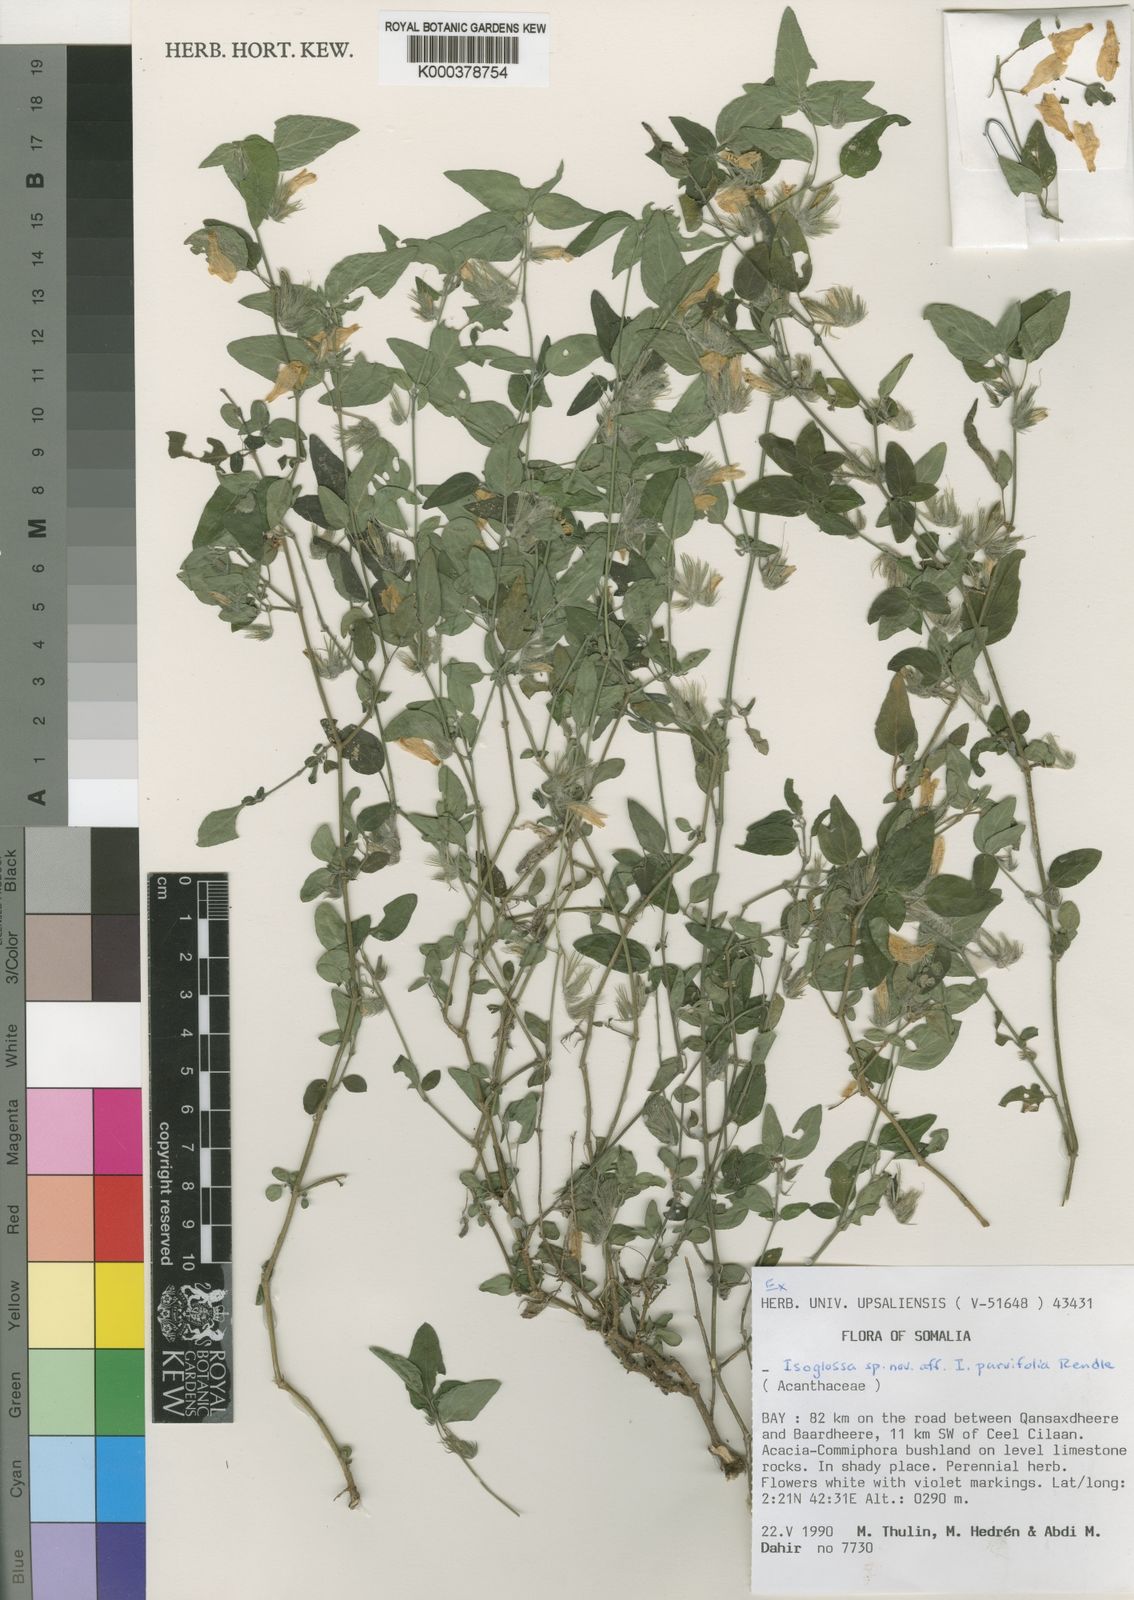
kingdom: Plantae
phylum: Tracheophyta
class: Magnoliopsida
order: Lamiales
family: Acanthaceae
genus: Isoglossa
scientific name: Isoglossa
